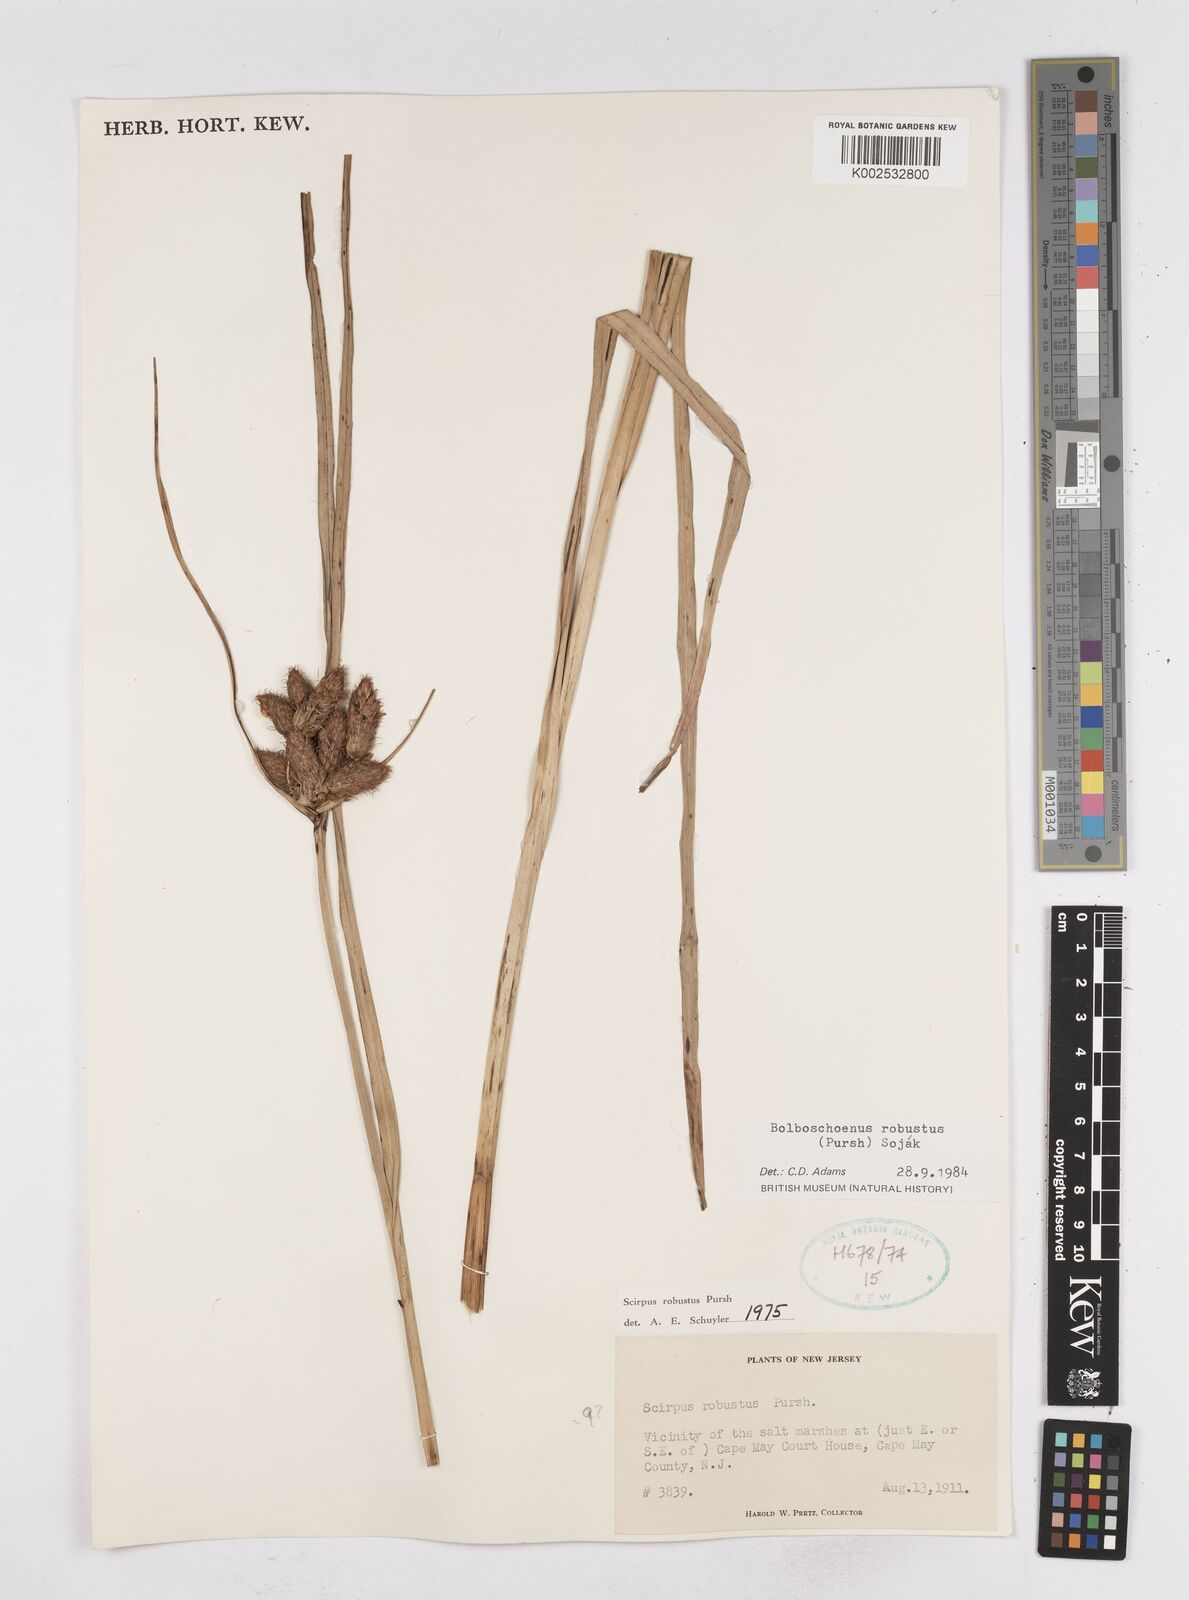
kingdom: Plantae
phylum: Tracheophyta
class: Liliopsida
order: Poales
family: Cyperaceae
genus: Bolboschoenus
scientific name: Bolboschoenus robustus
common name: Seacoast bulrush
